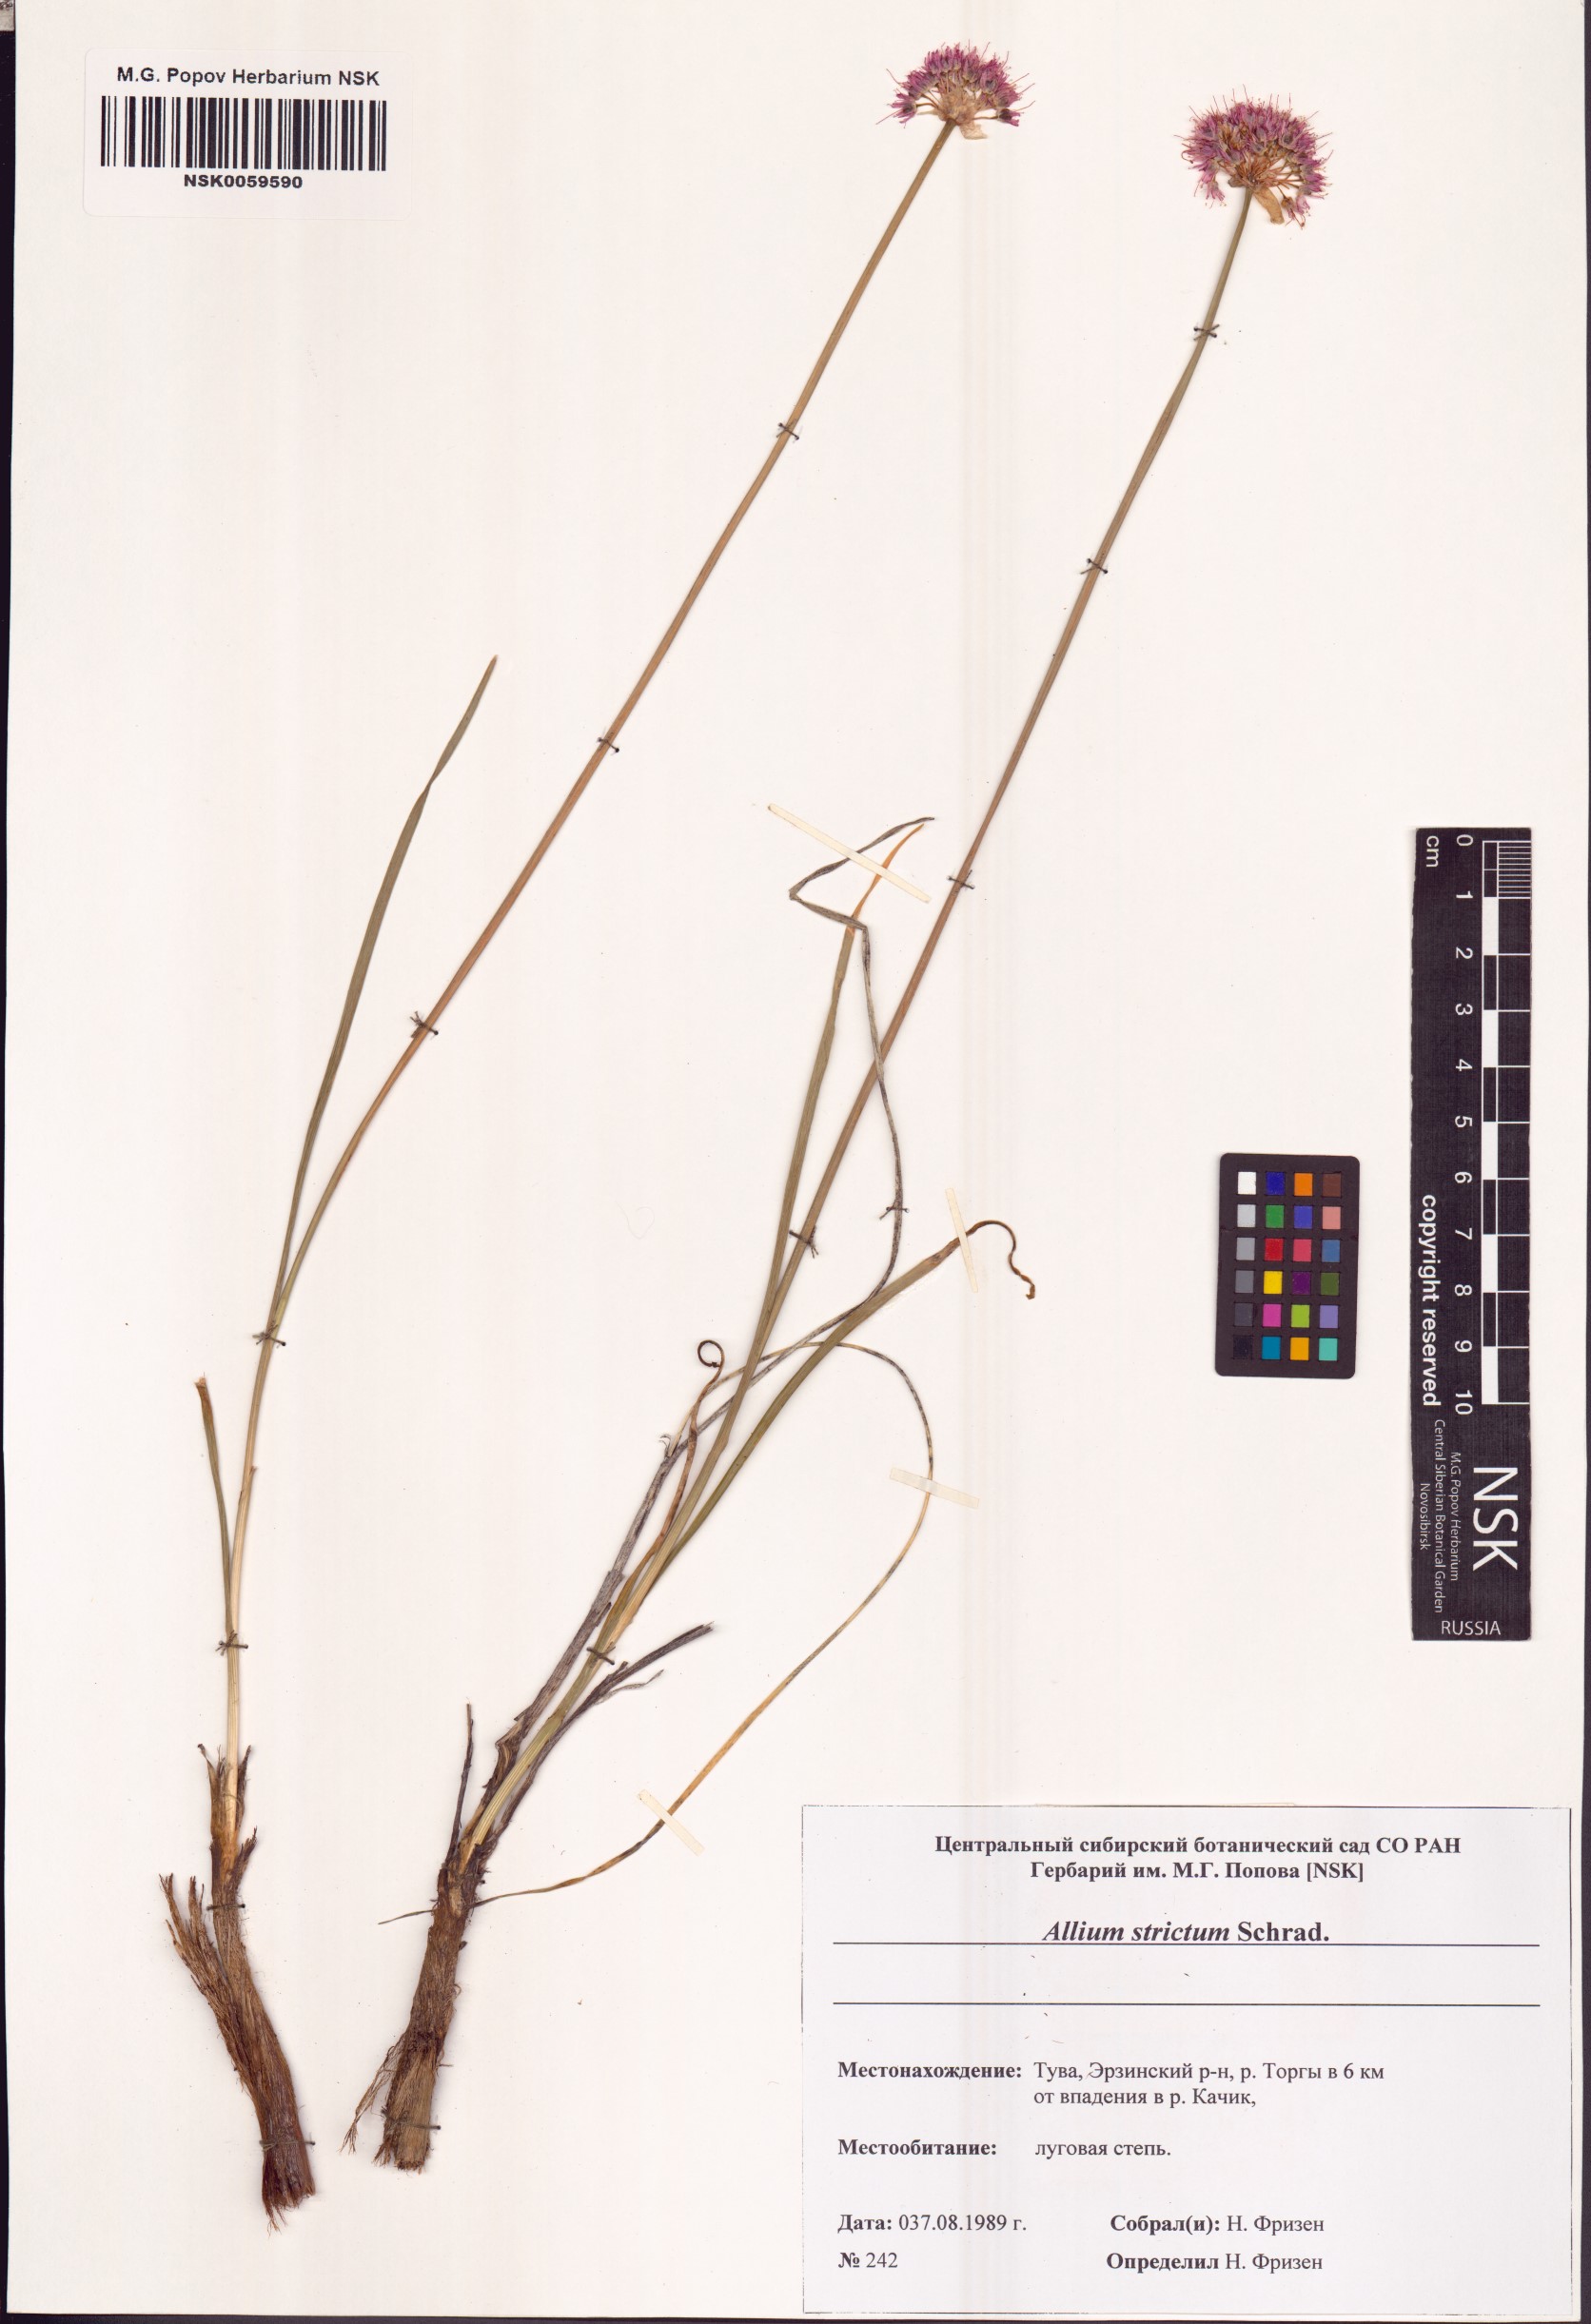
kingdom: Plantae
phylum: Tracheophyta
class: Liliopsida
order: Asparagales
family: Amaryllidaceae
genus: Allium
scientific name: Allium strictum
